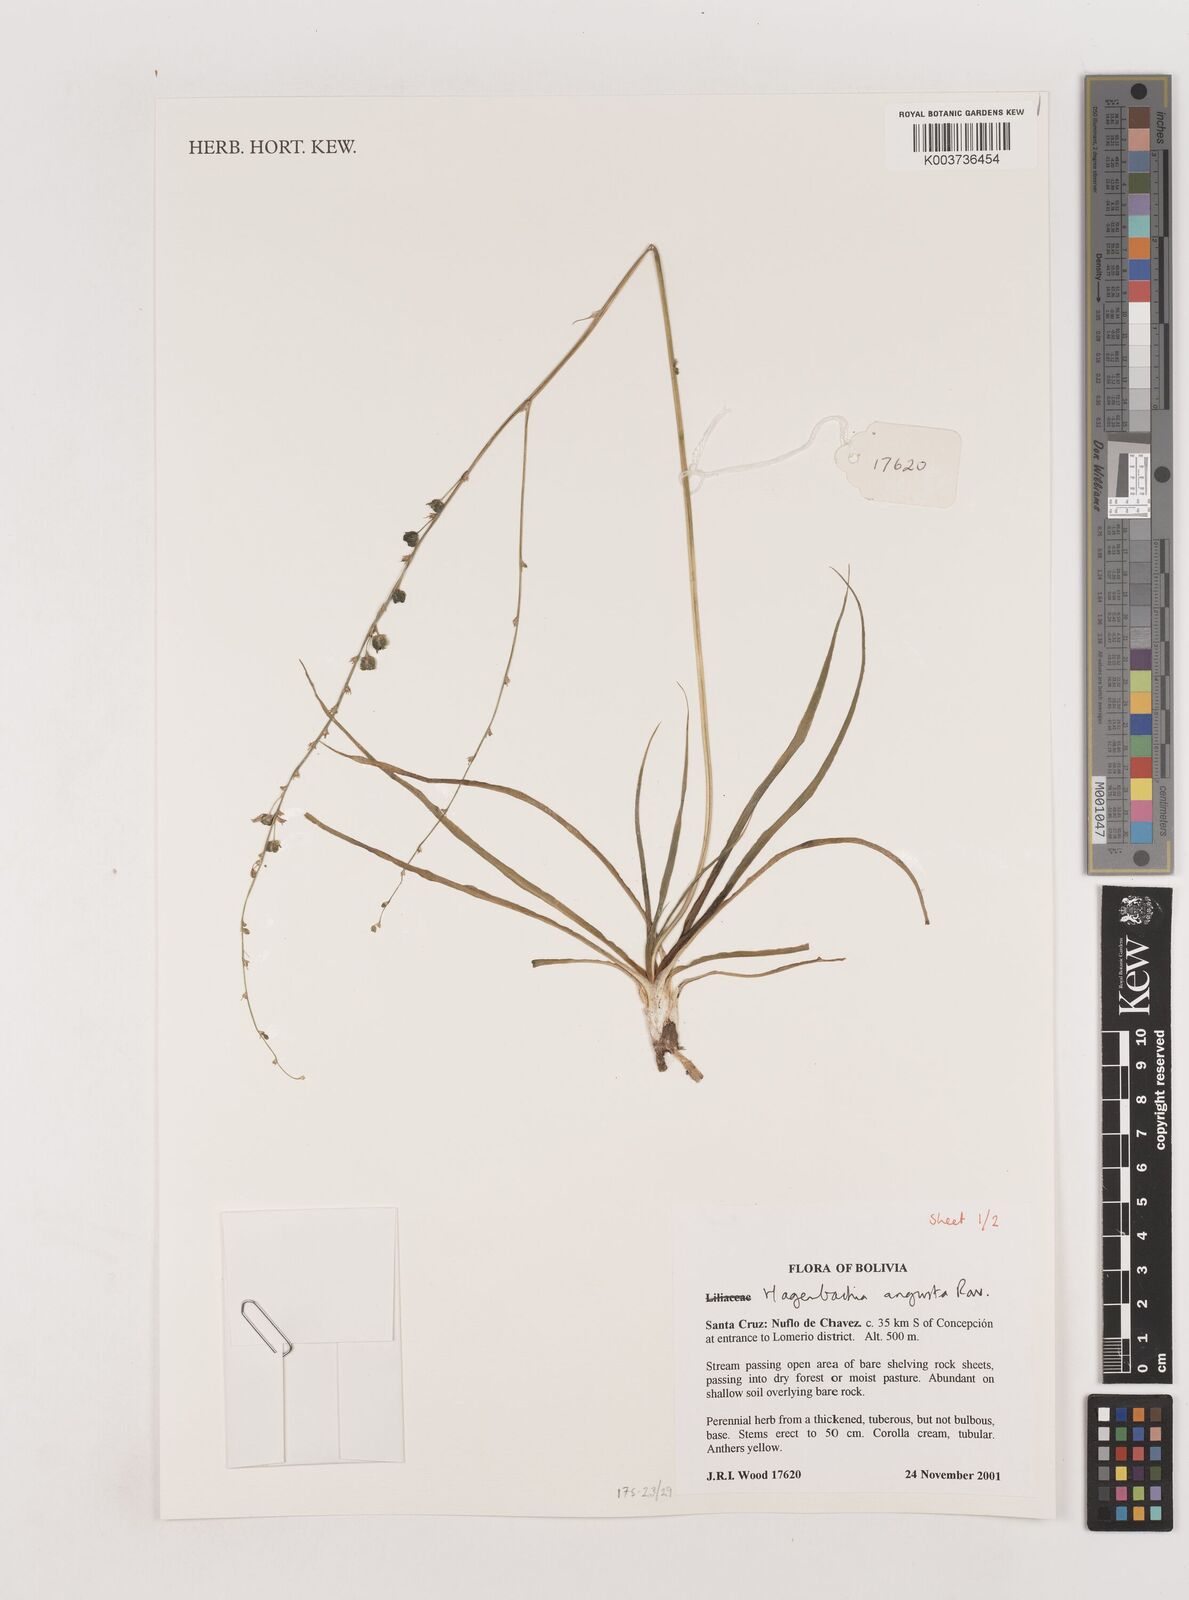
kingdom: Plantae
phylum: Tracheophyta
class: Liliopsida
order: Asparagales
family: Asparagaceae
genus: Hagenbachia
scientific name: Hagenbachia matogrossensis
